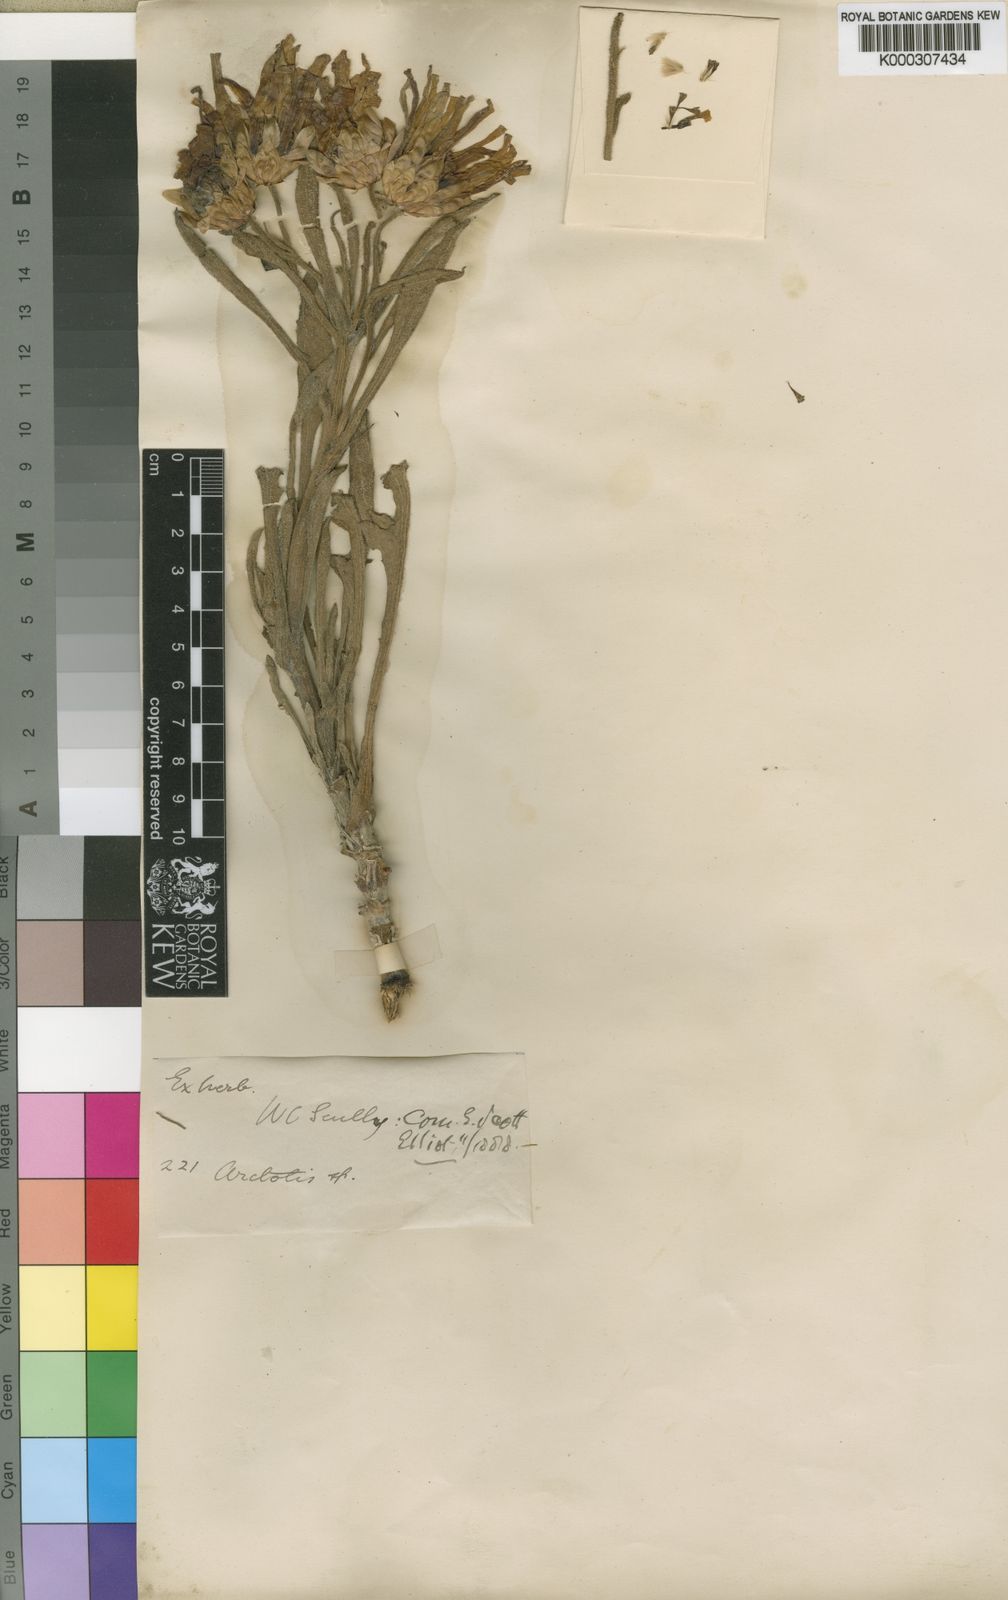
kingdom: Plantae
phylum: Tracheophyta
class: Magnoliopsida
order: Asterales
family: Asteraceae
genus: Arctotis
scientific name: Arctotis scullyi
